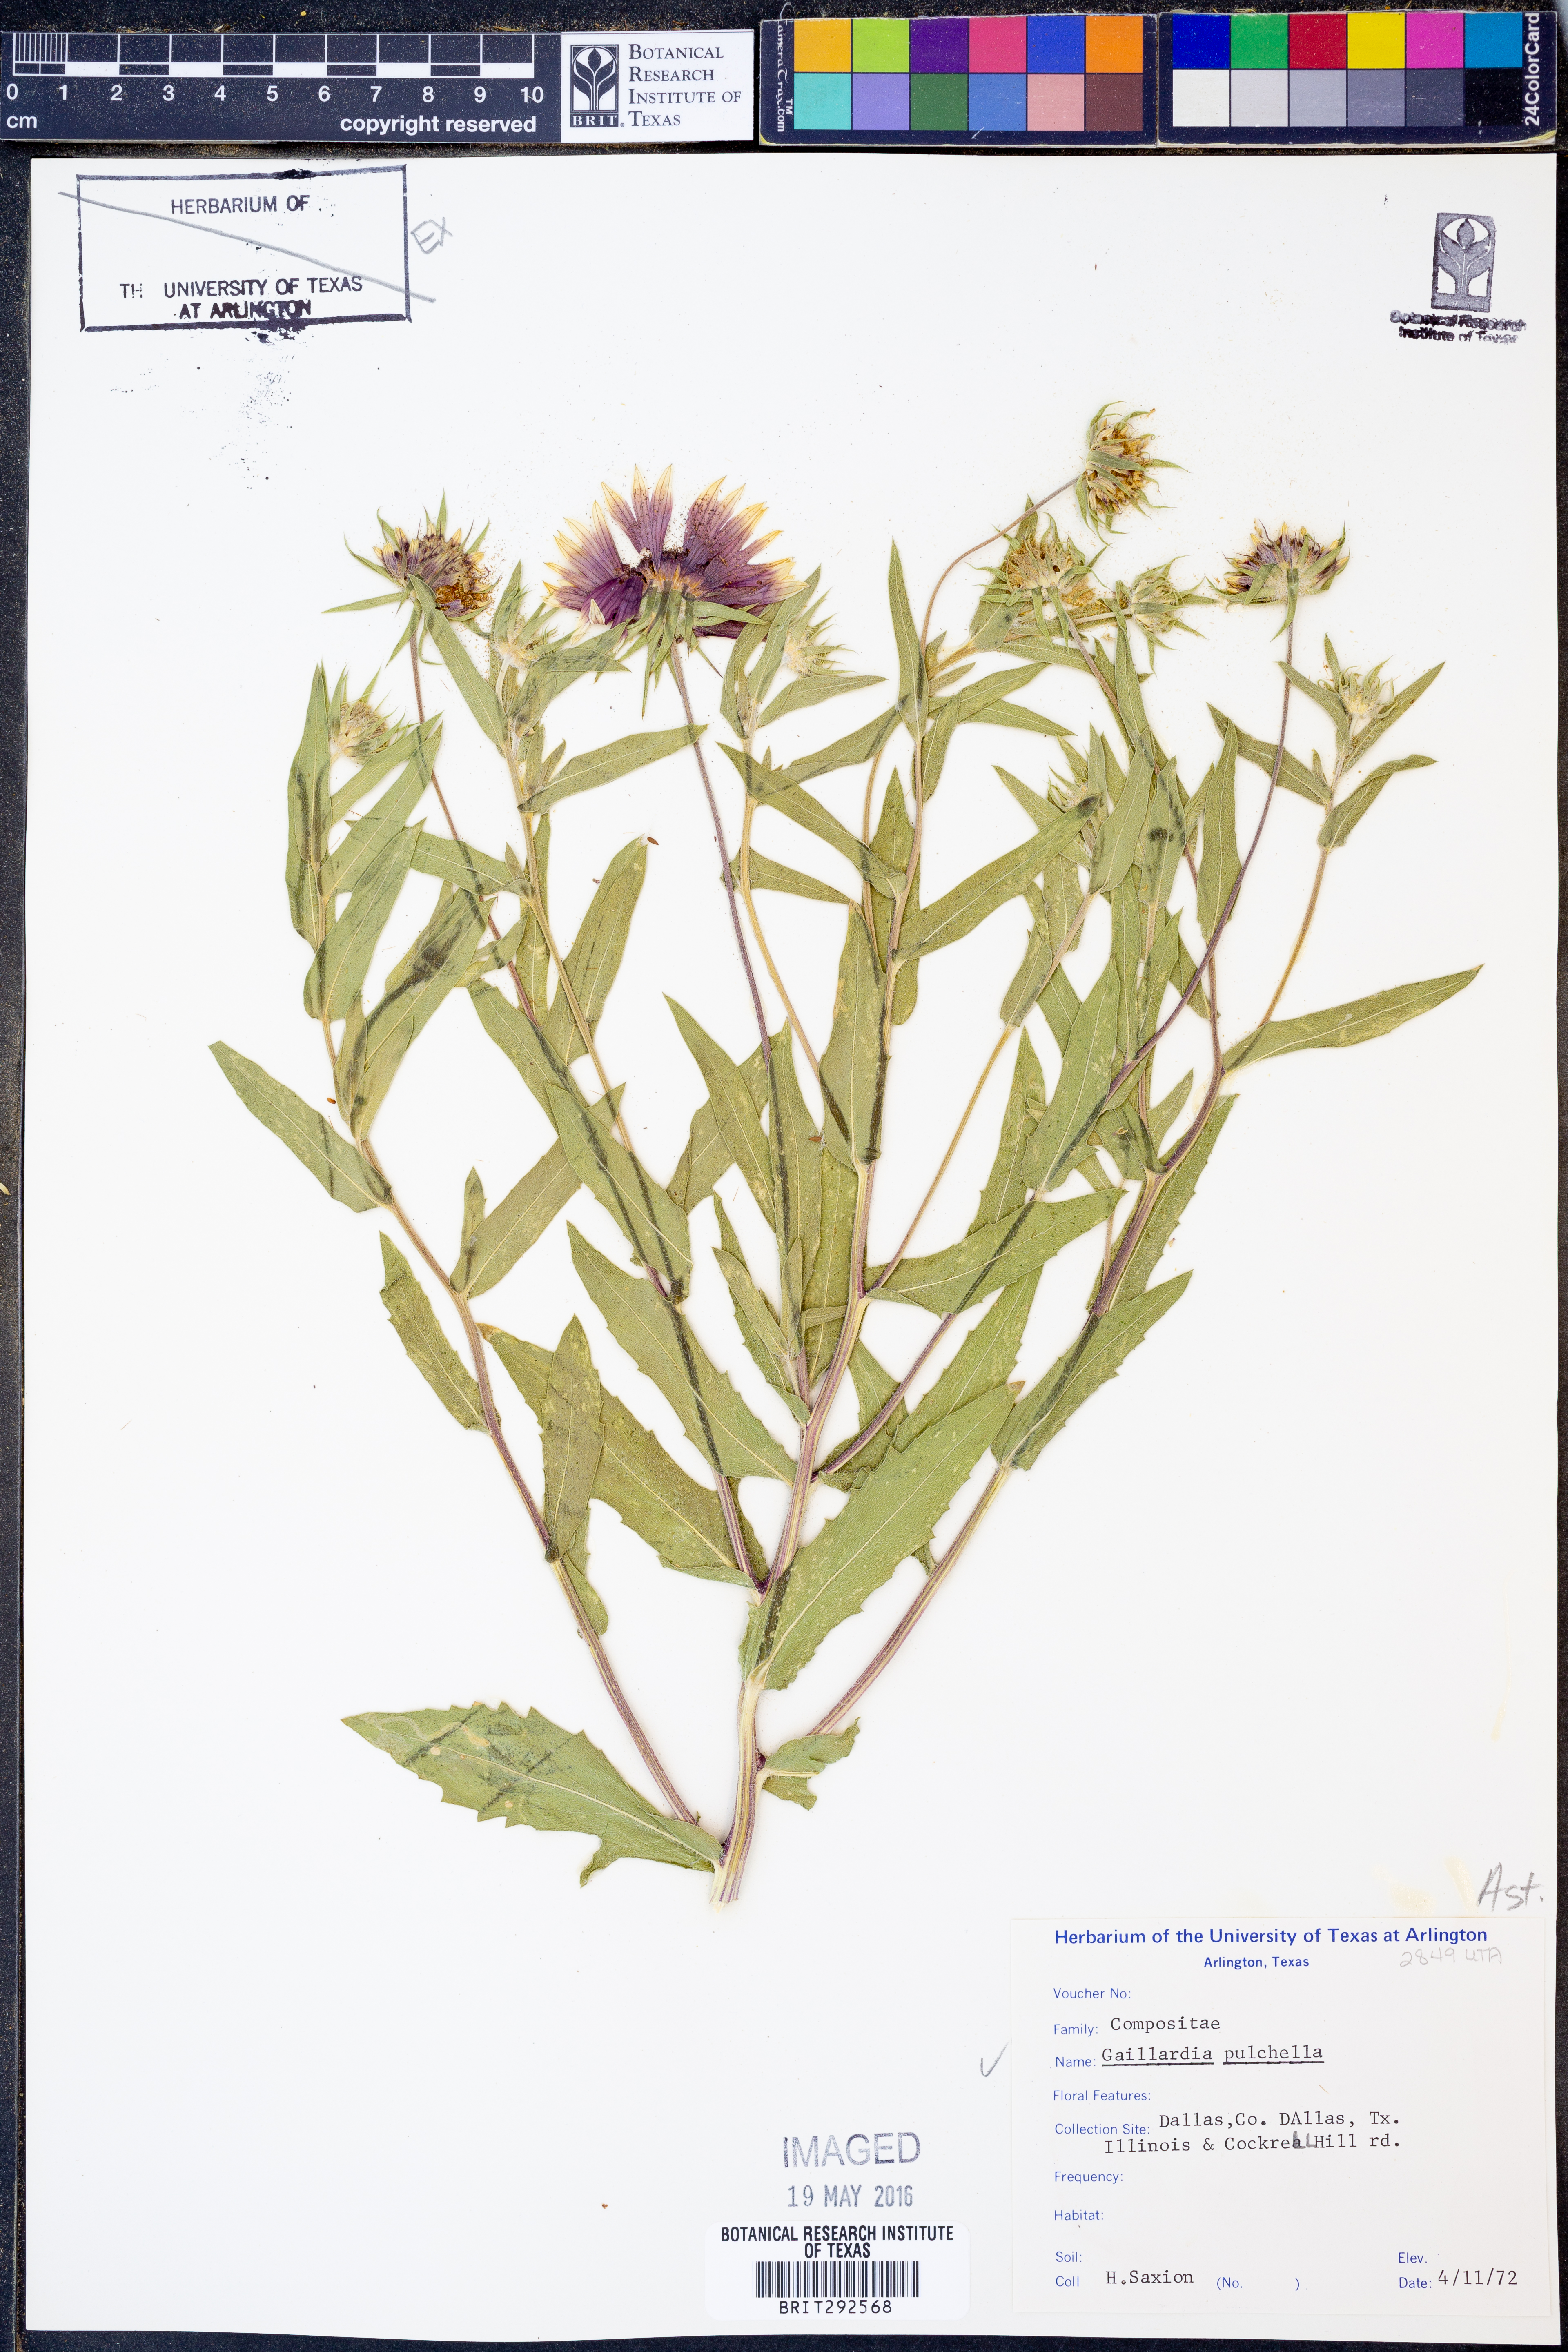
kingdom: Plantae
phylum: Tracheophyta
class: Magnoliopsida
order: Asterales
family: Asteraceae
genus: Gaillardia
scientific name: Gaillardia pulchella
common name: Firewheel
